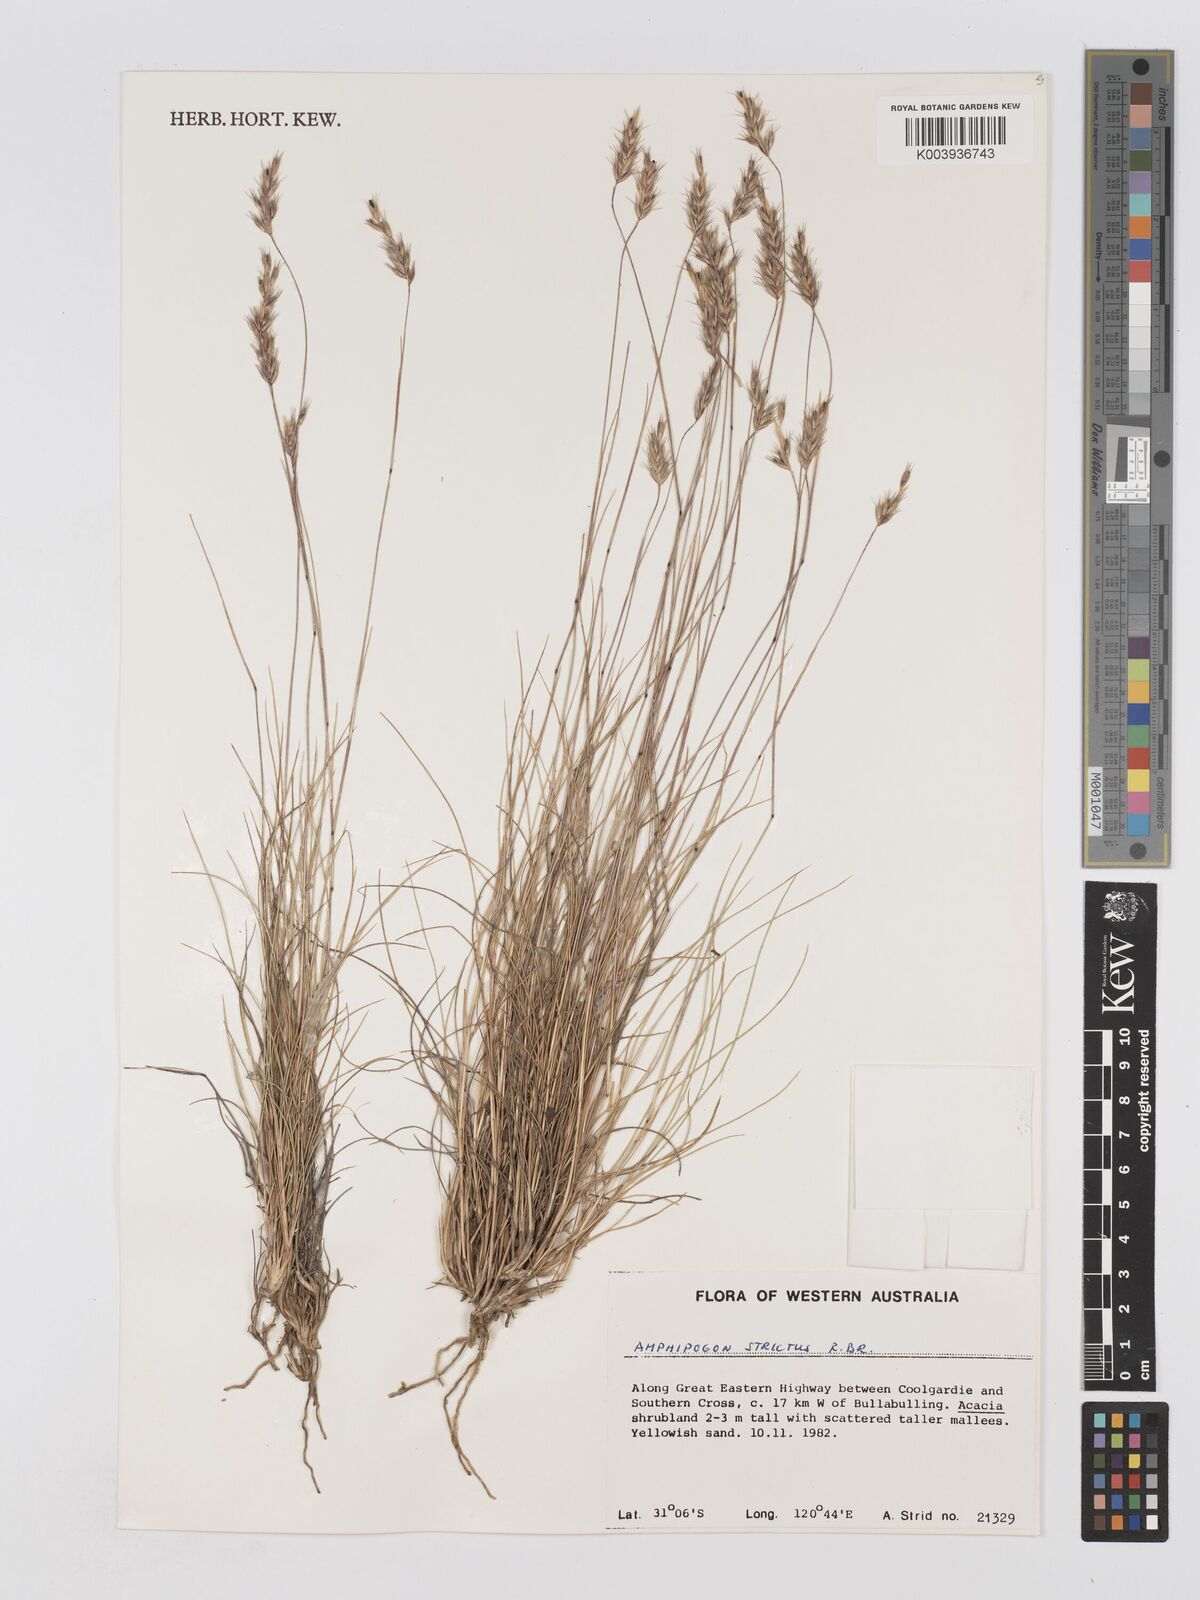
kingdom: Plantae
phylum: Tracheophyta
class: Liliopsida
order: Poales
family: Poaceae
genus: Amphipogon
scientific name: Amphipogon strictus
